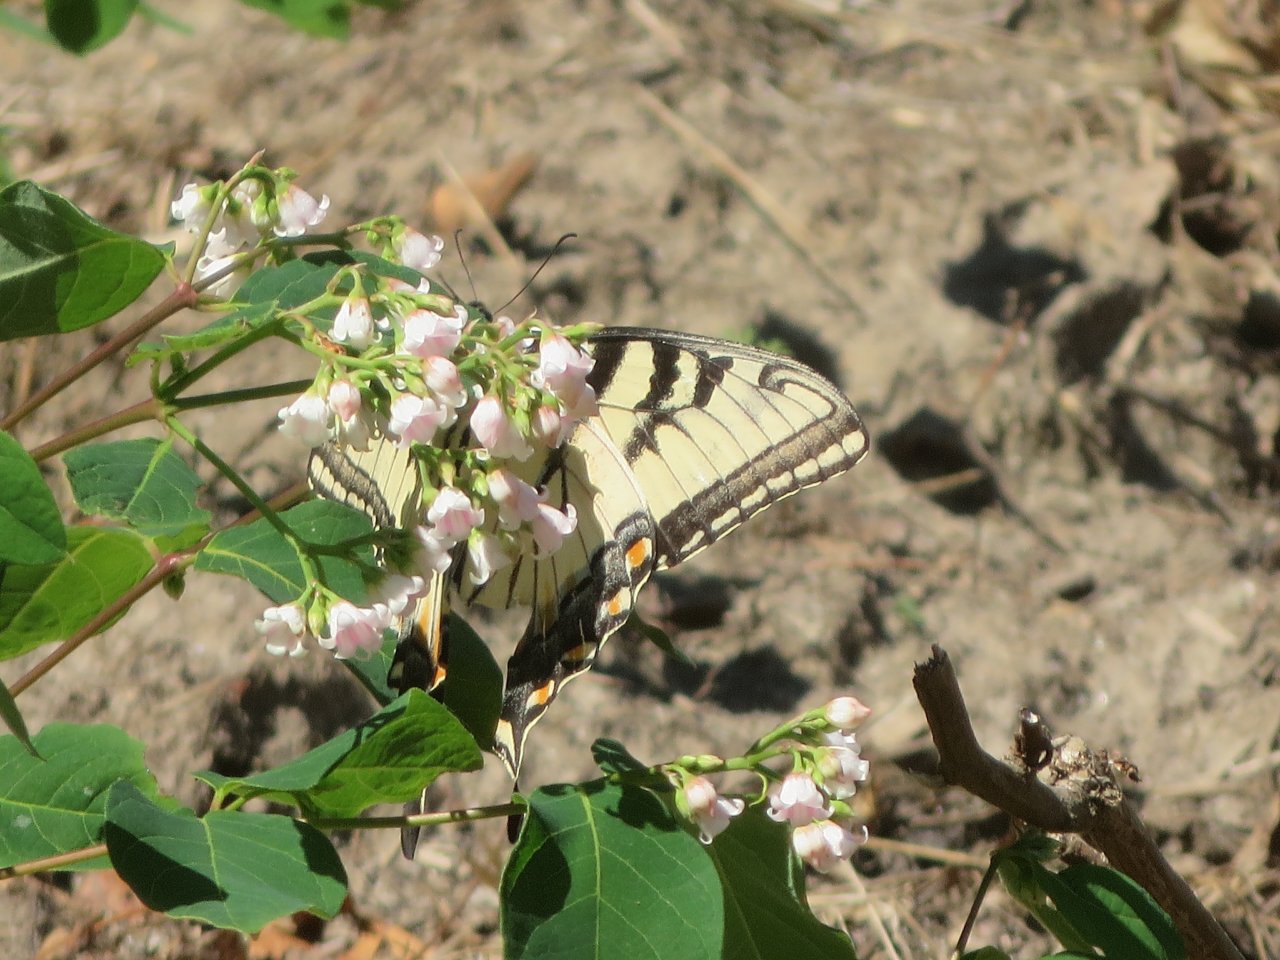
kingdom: Animalia
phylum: Arthropoda
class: Insecta
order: Lepidoptera
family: Papilionidae
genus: Pterourus
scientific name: Pterourus glaucus
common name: Eastern Tiger Swallowtail
